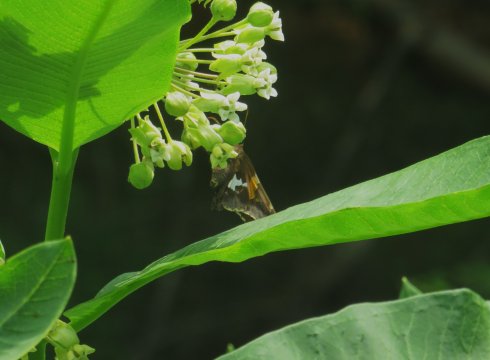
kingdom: Animalia
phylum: Arthropoda
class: Insecta
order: Lepidoptera
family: Hesperiidae
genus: Epargyreus
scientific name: Epargyreus clarus
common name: Silver-spotted Skipper
